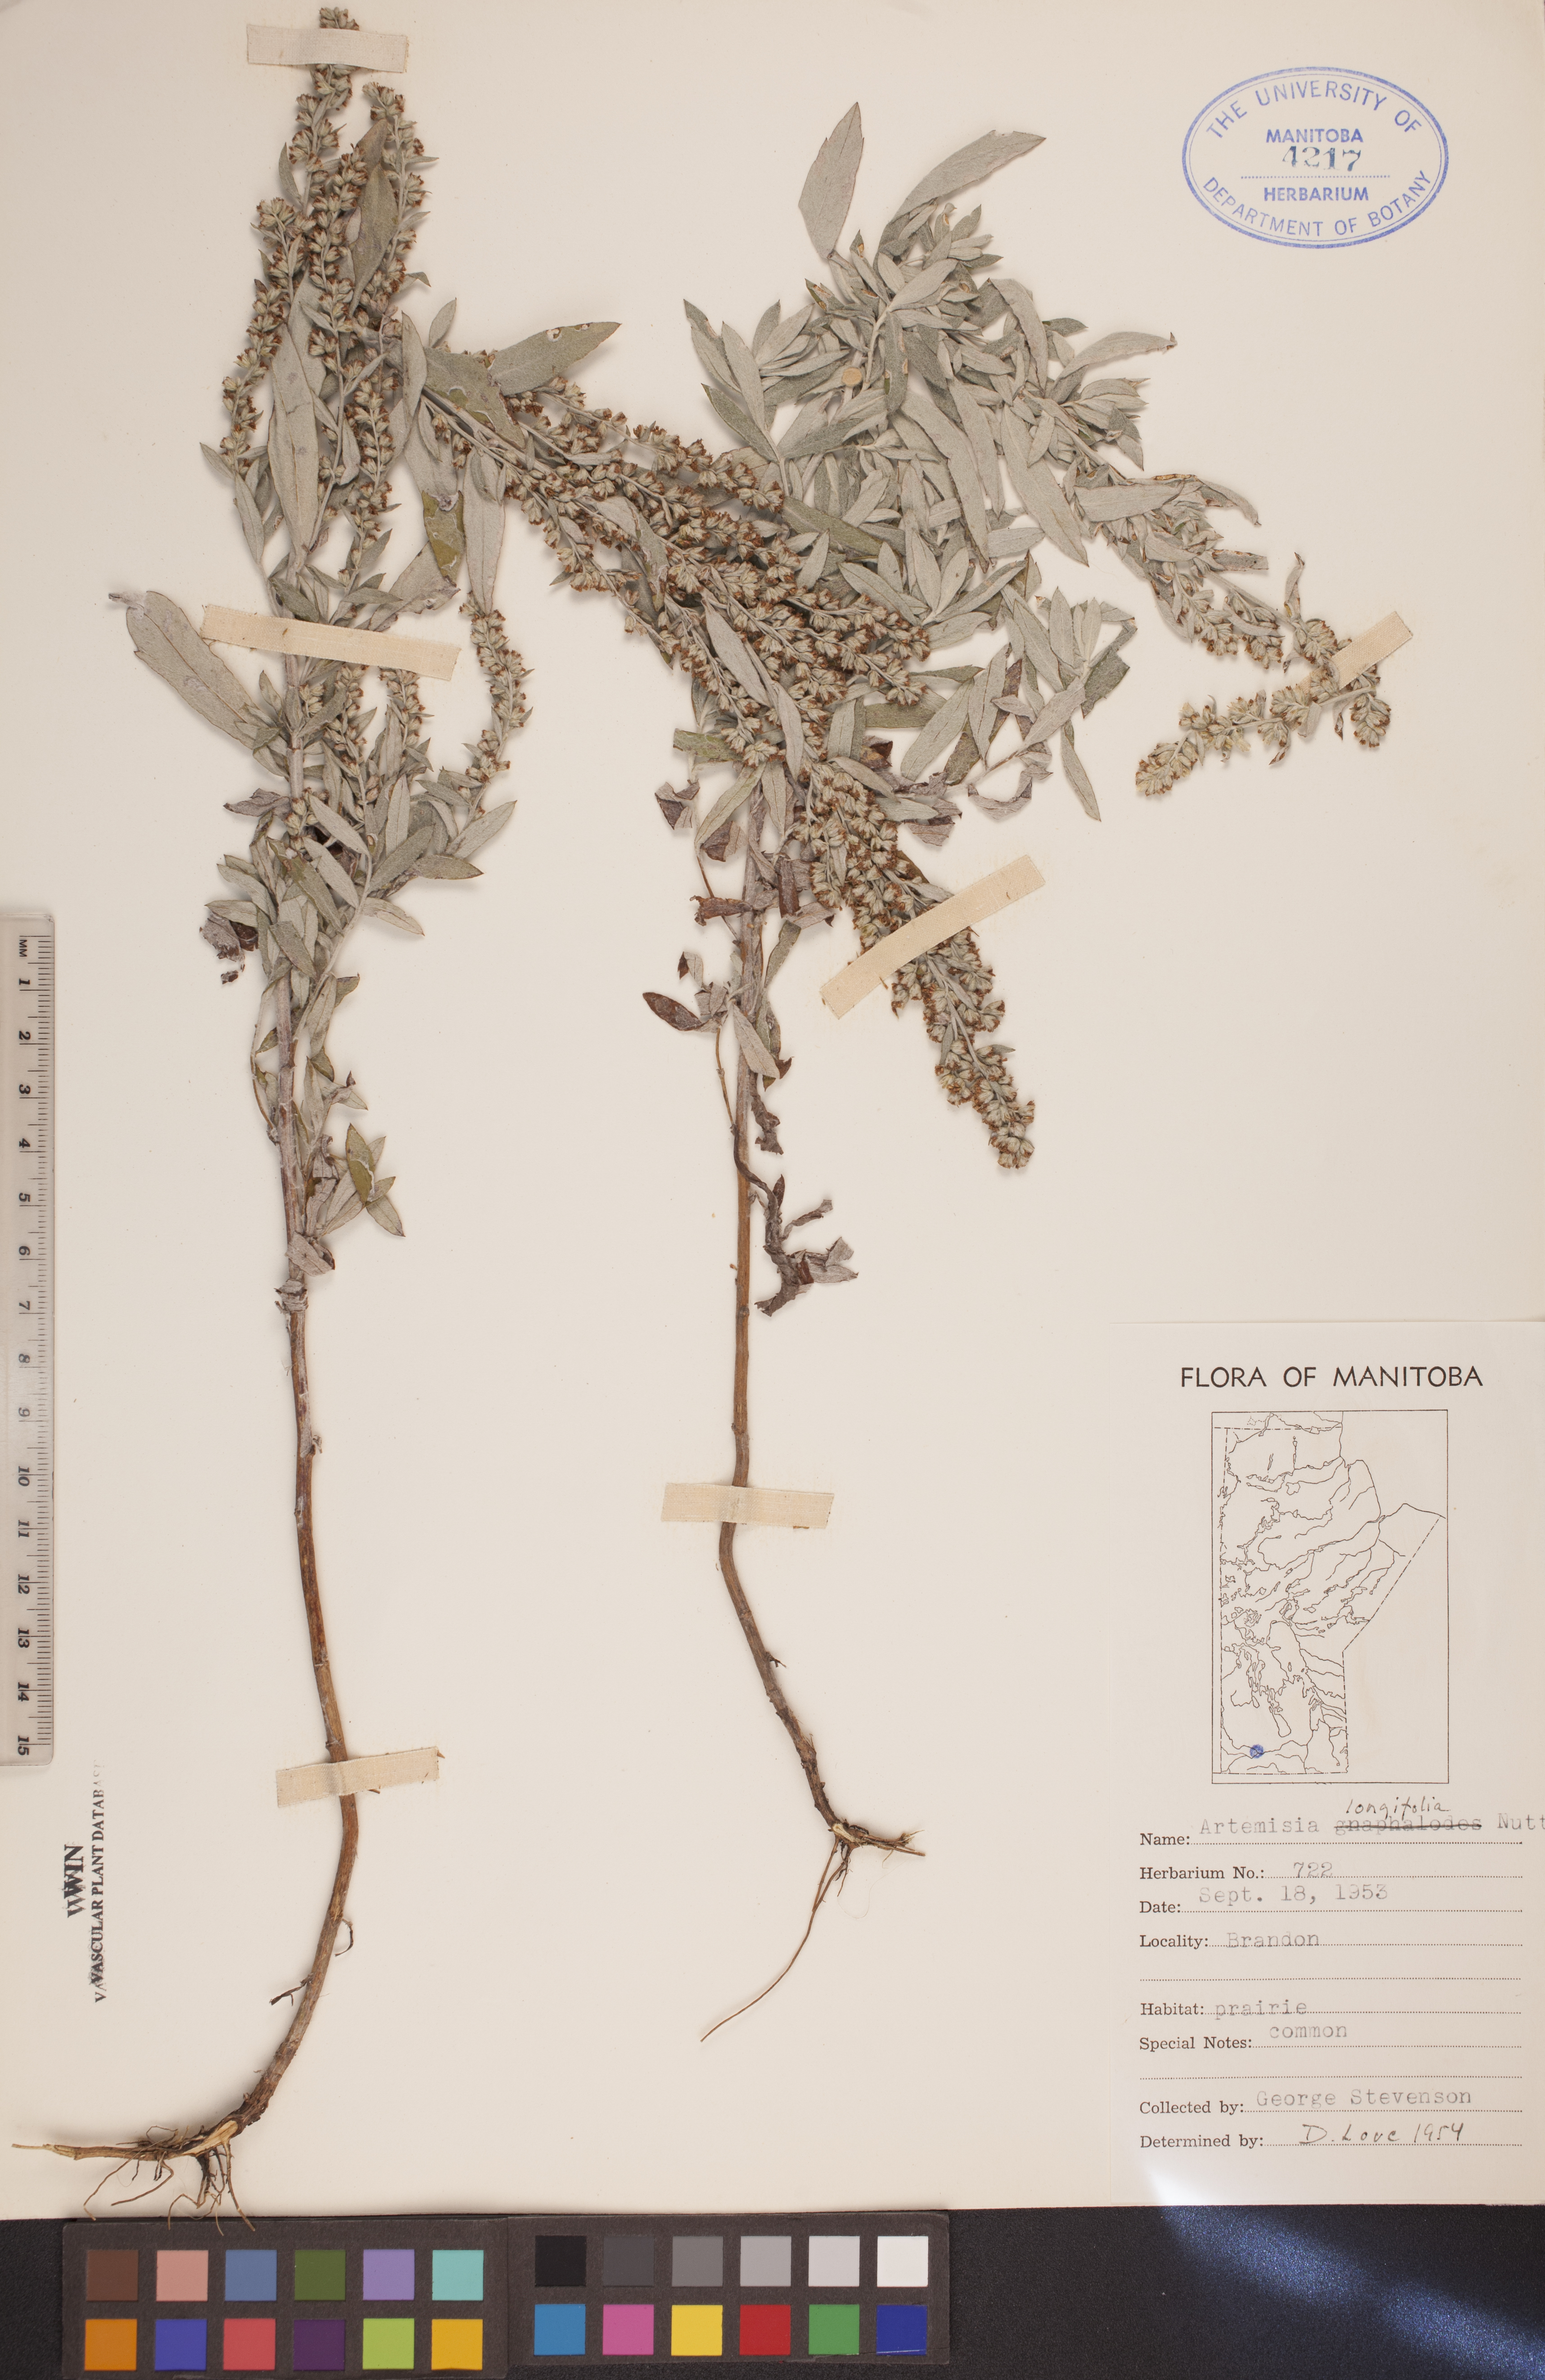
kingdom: Plantae
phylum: Tracheophyta
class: Magnoliopsida
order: Asterales
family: Asteraceae
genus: Artemisia
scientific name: Artemisia longifolia
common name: Long-leaved mugwort
